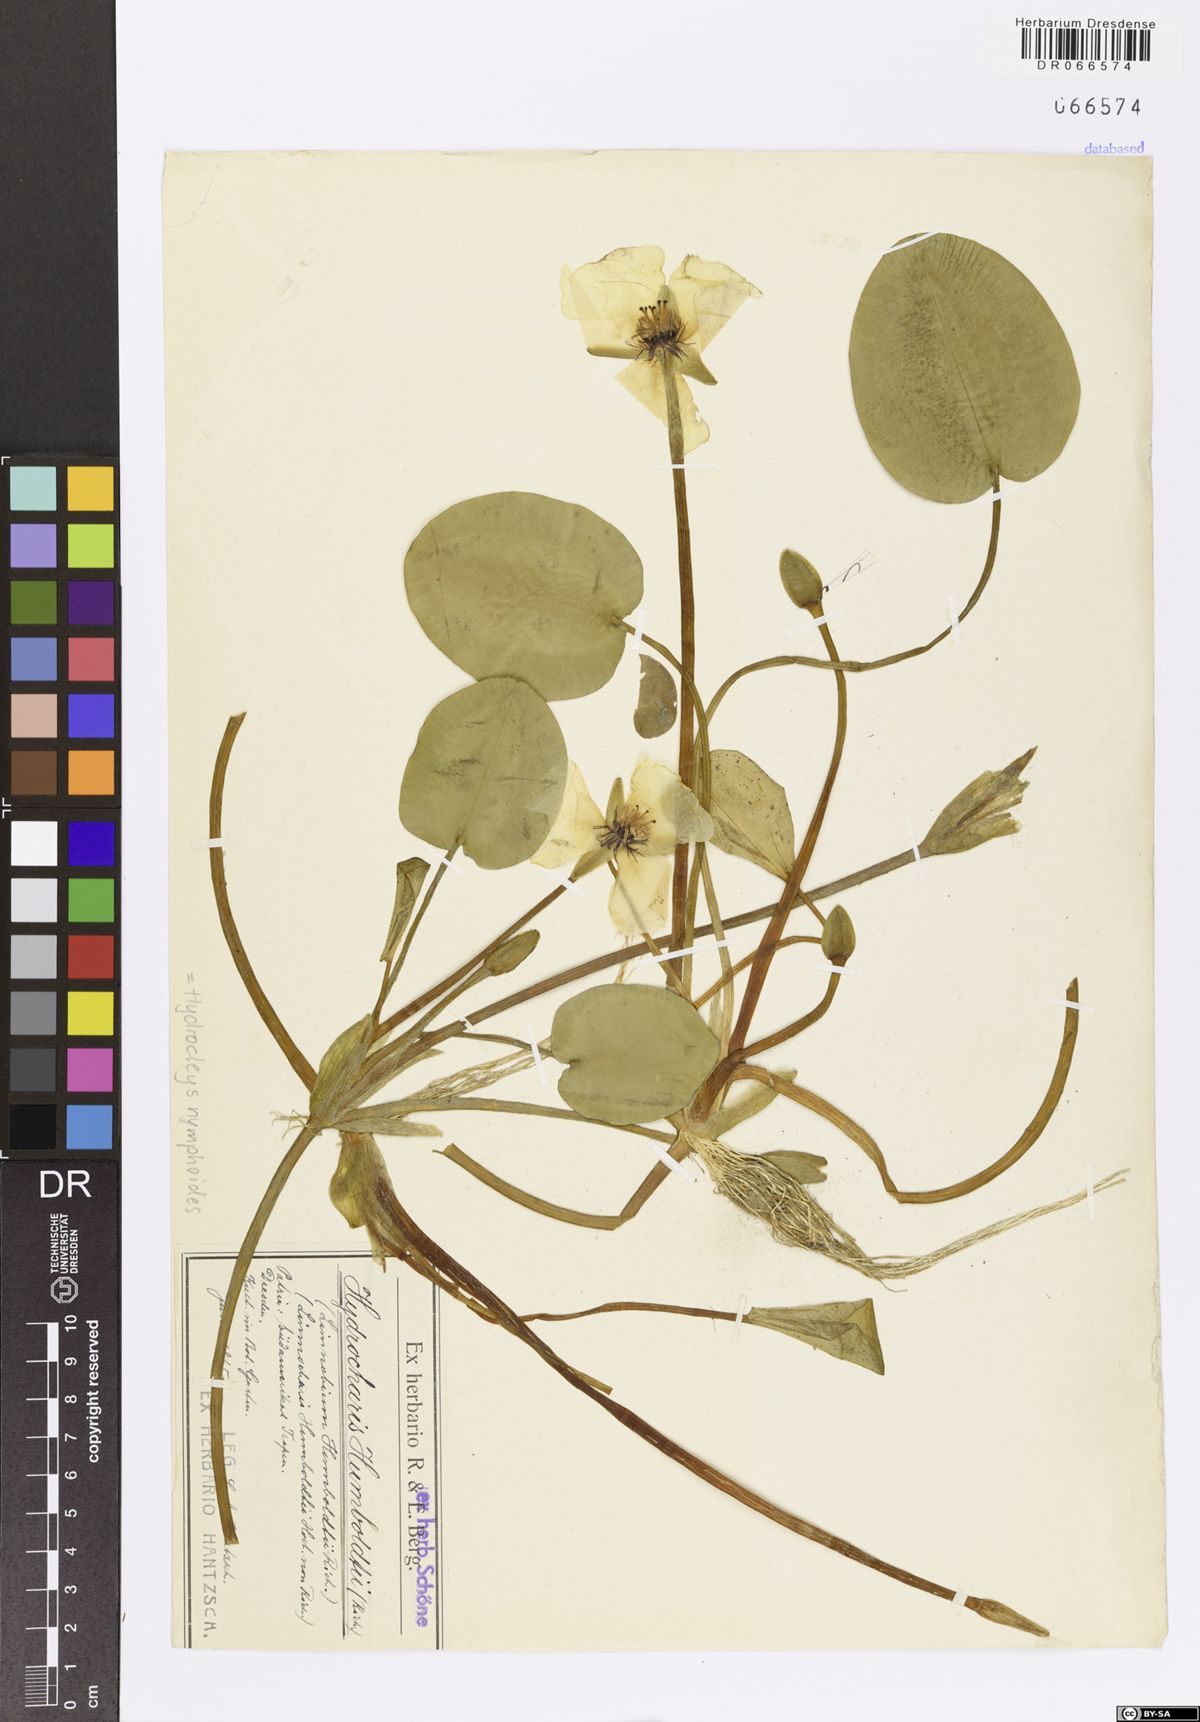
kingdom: Plantae
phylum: Tracheophyta
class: Liliopsida
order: Alismatales
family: Alismataceae
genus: Hydrocleys
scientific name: Hydrocleys nymphoides
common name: Water-poppy
